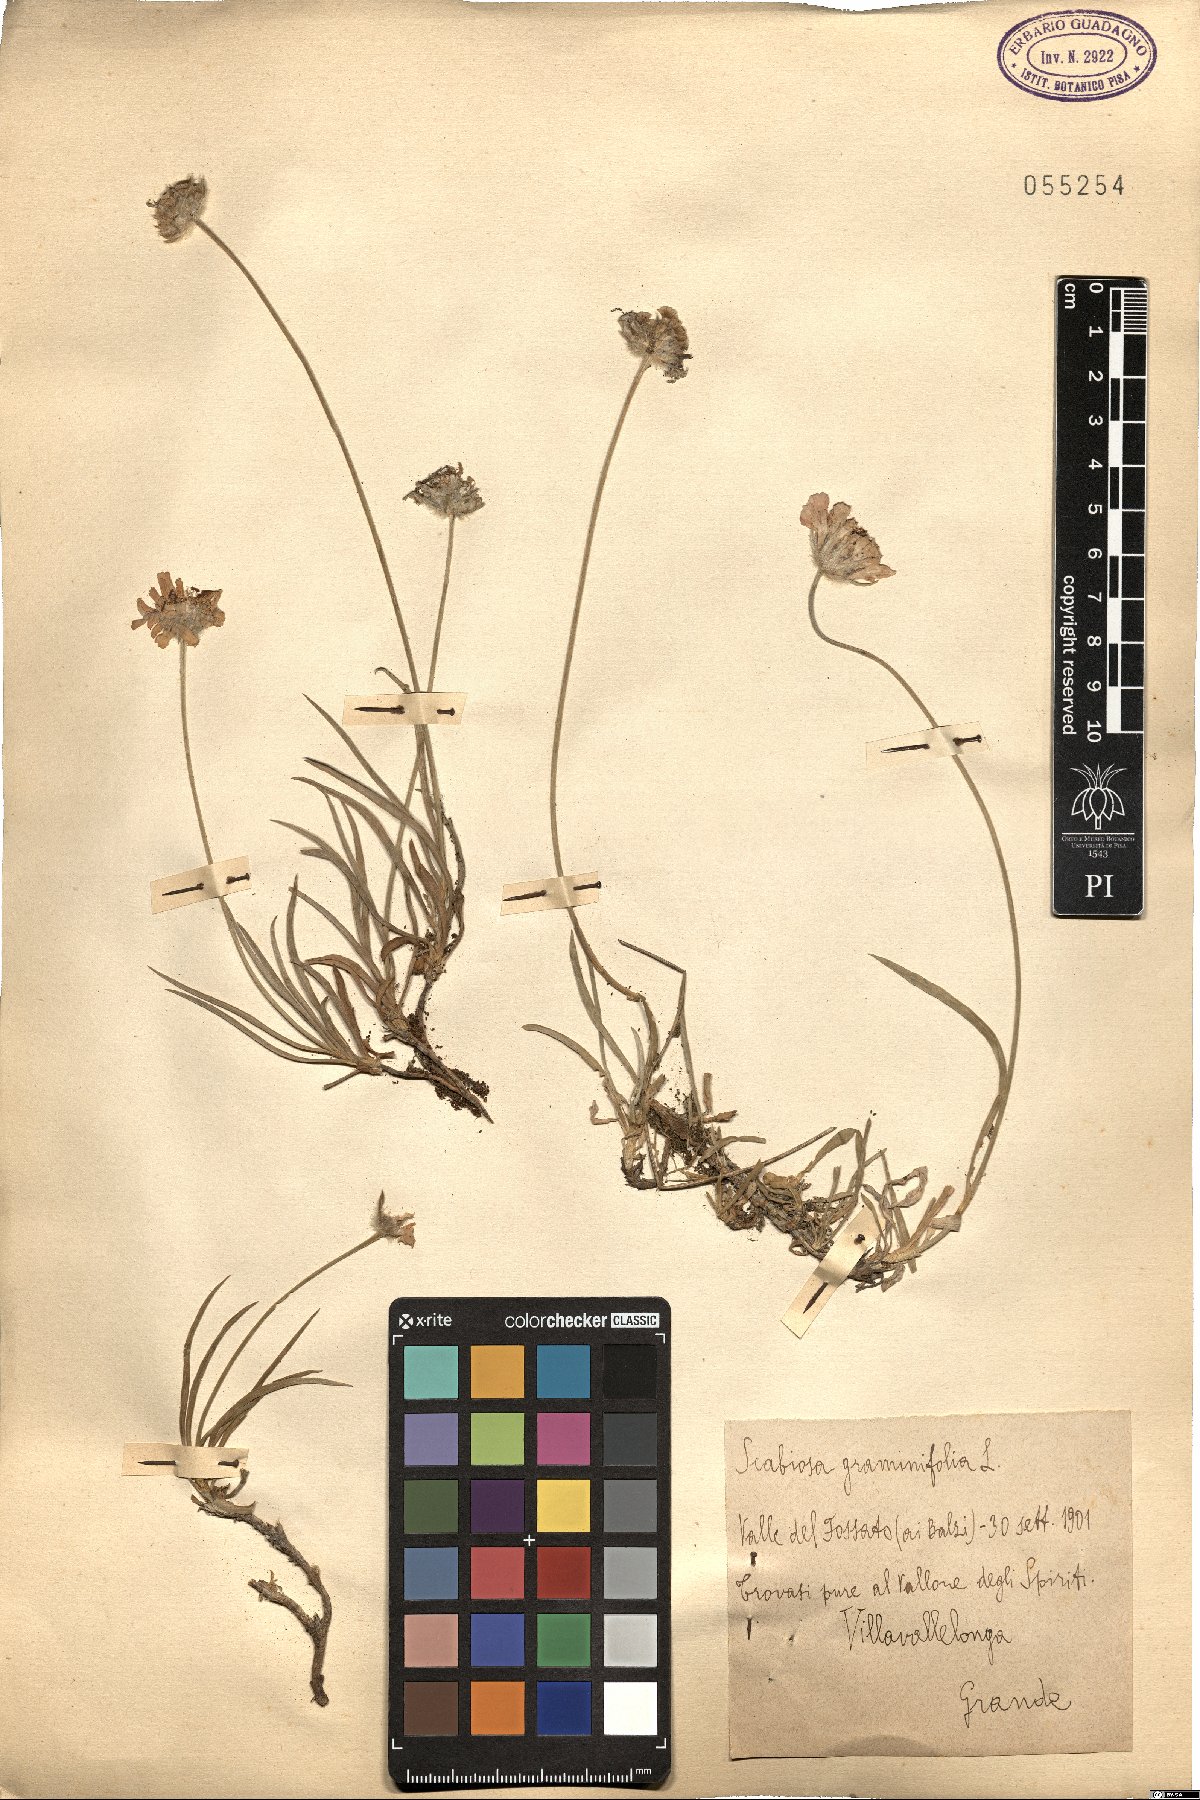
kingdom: Plantae
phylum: Tracheophyta
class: Magnoliopsida
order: Dipsacales
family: Caprifoliaceae
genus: Lomelosia
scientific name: Lomelosia graminifolia
